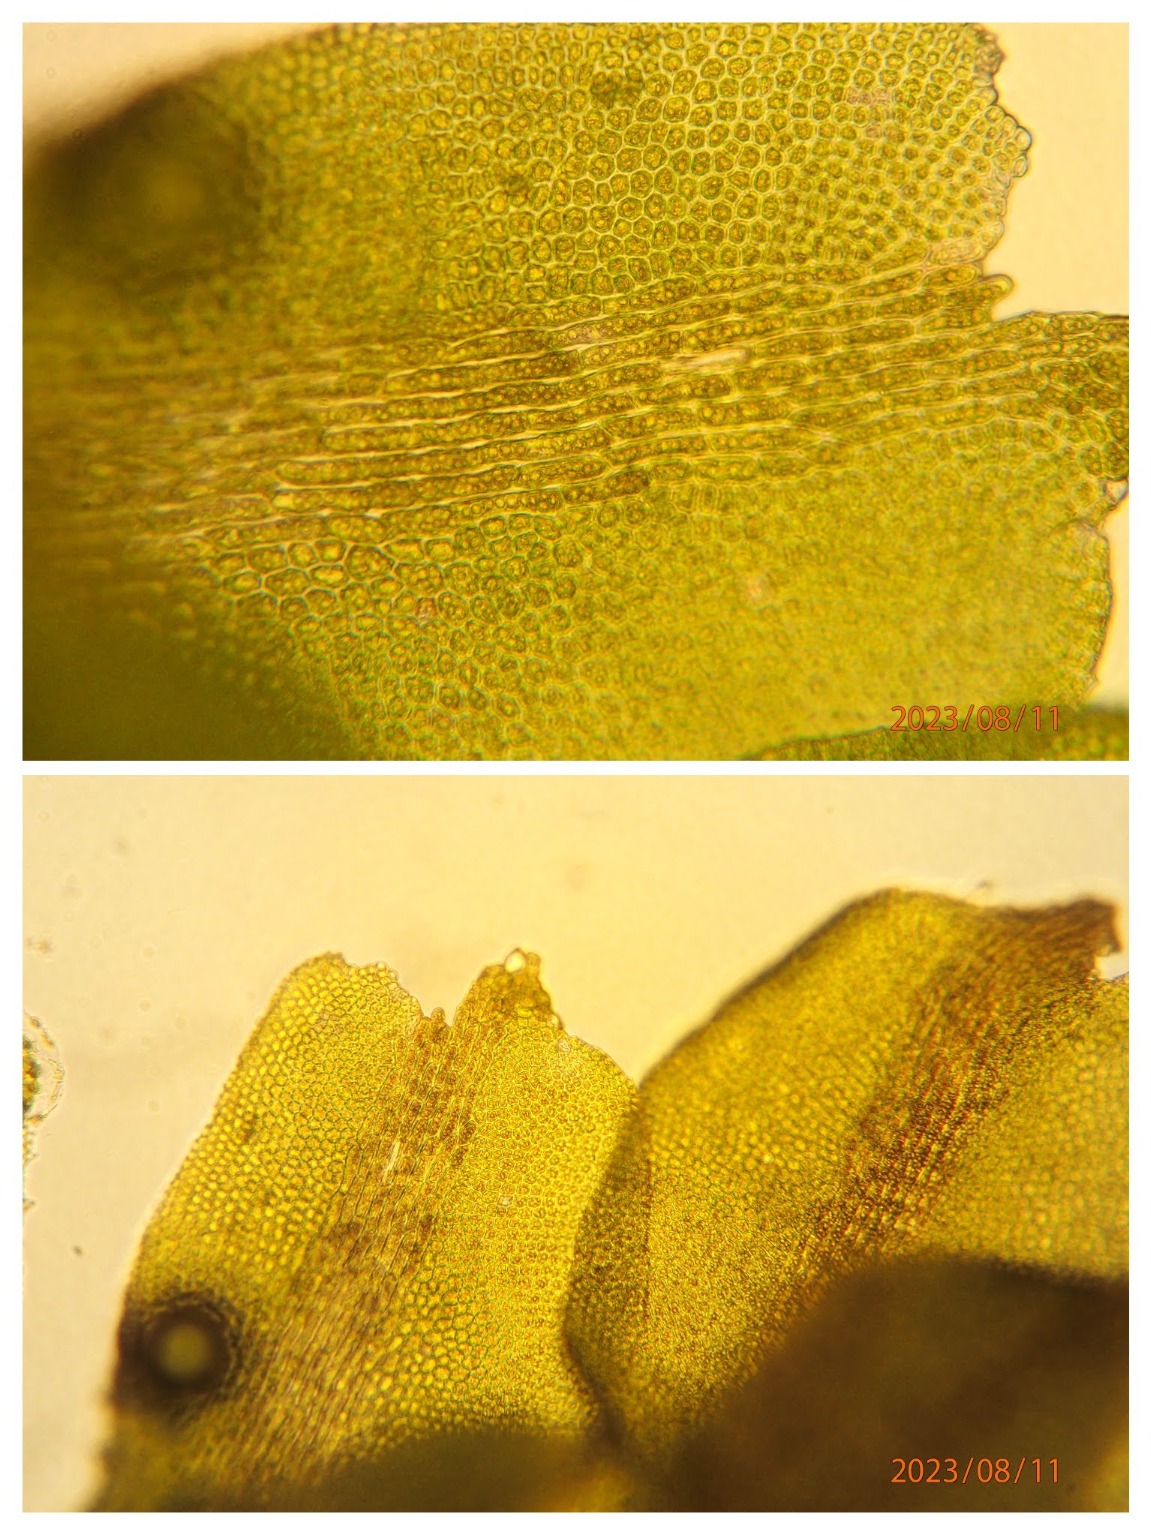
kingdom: Plantae
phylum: Marchantiophyta
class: Jungermanniopsida
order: Jungermanniales
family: Scapaniaceae
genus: Diplophyllum
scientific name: Diplophyllum albicans
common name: Stribet dobbeltblad
